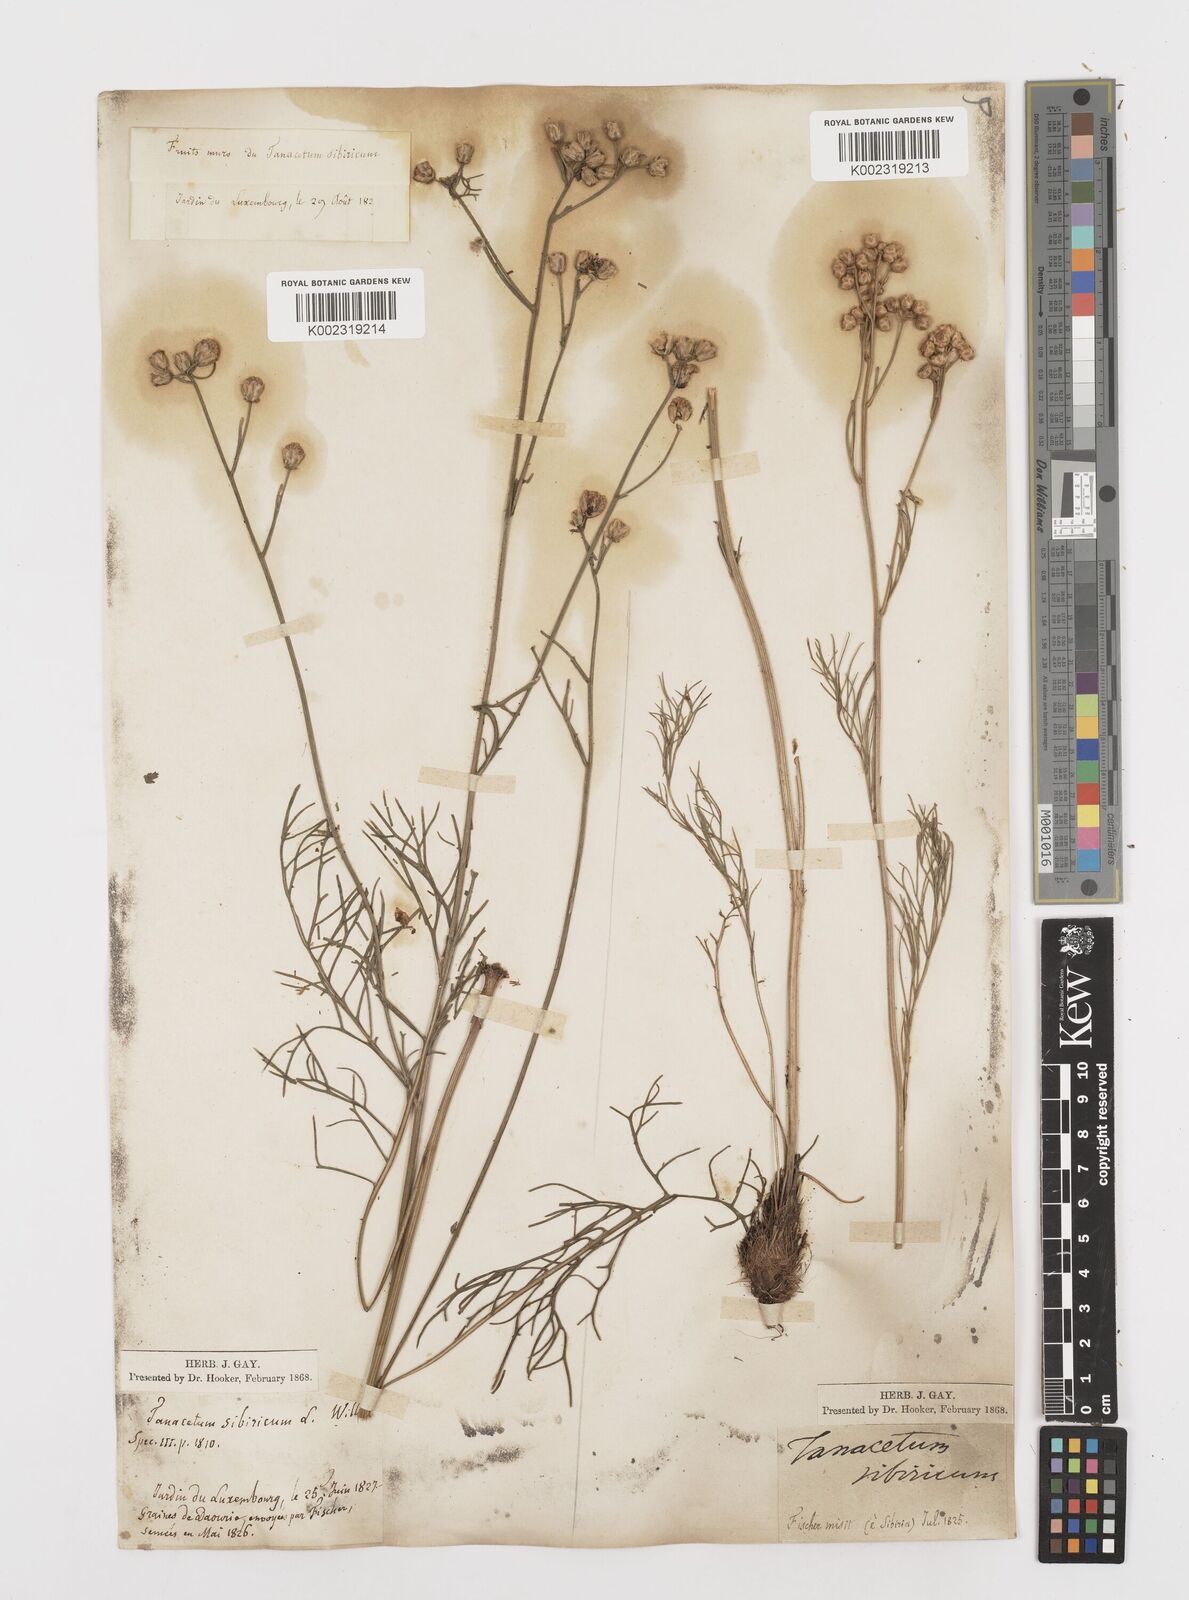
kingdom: Plantae
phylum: Tracheophyta
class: Magnoliopsida
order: Asterales
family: Asteraceae
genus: Filifolium
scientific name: Filifolium sibiricum
